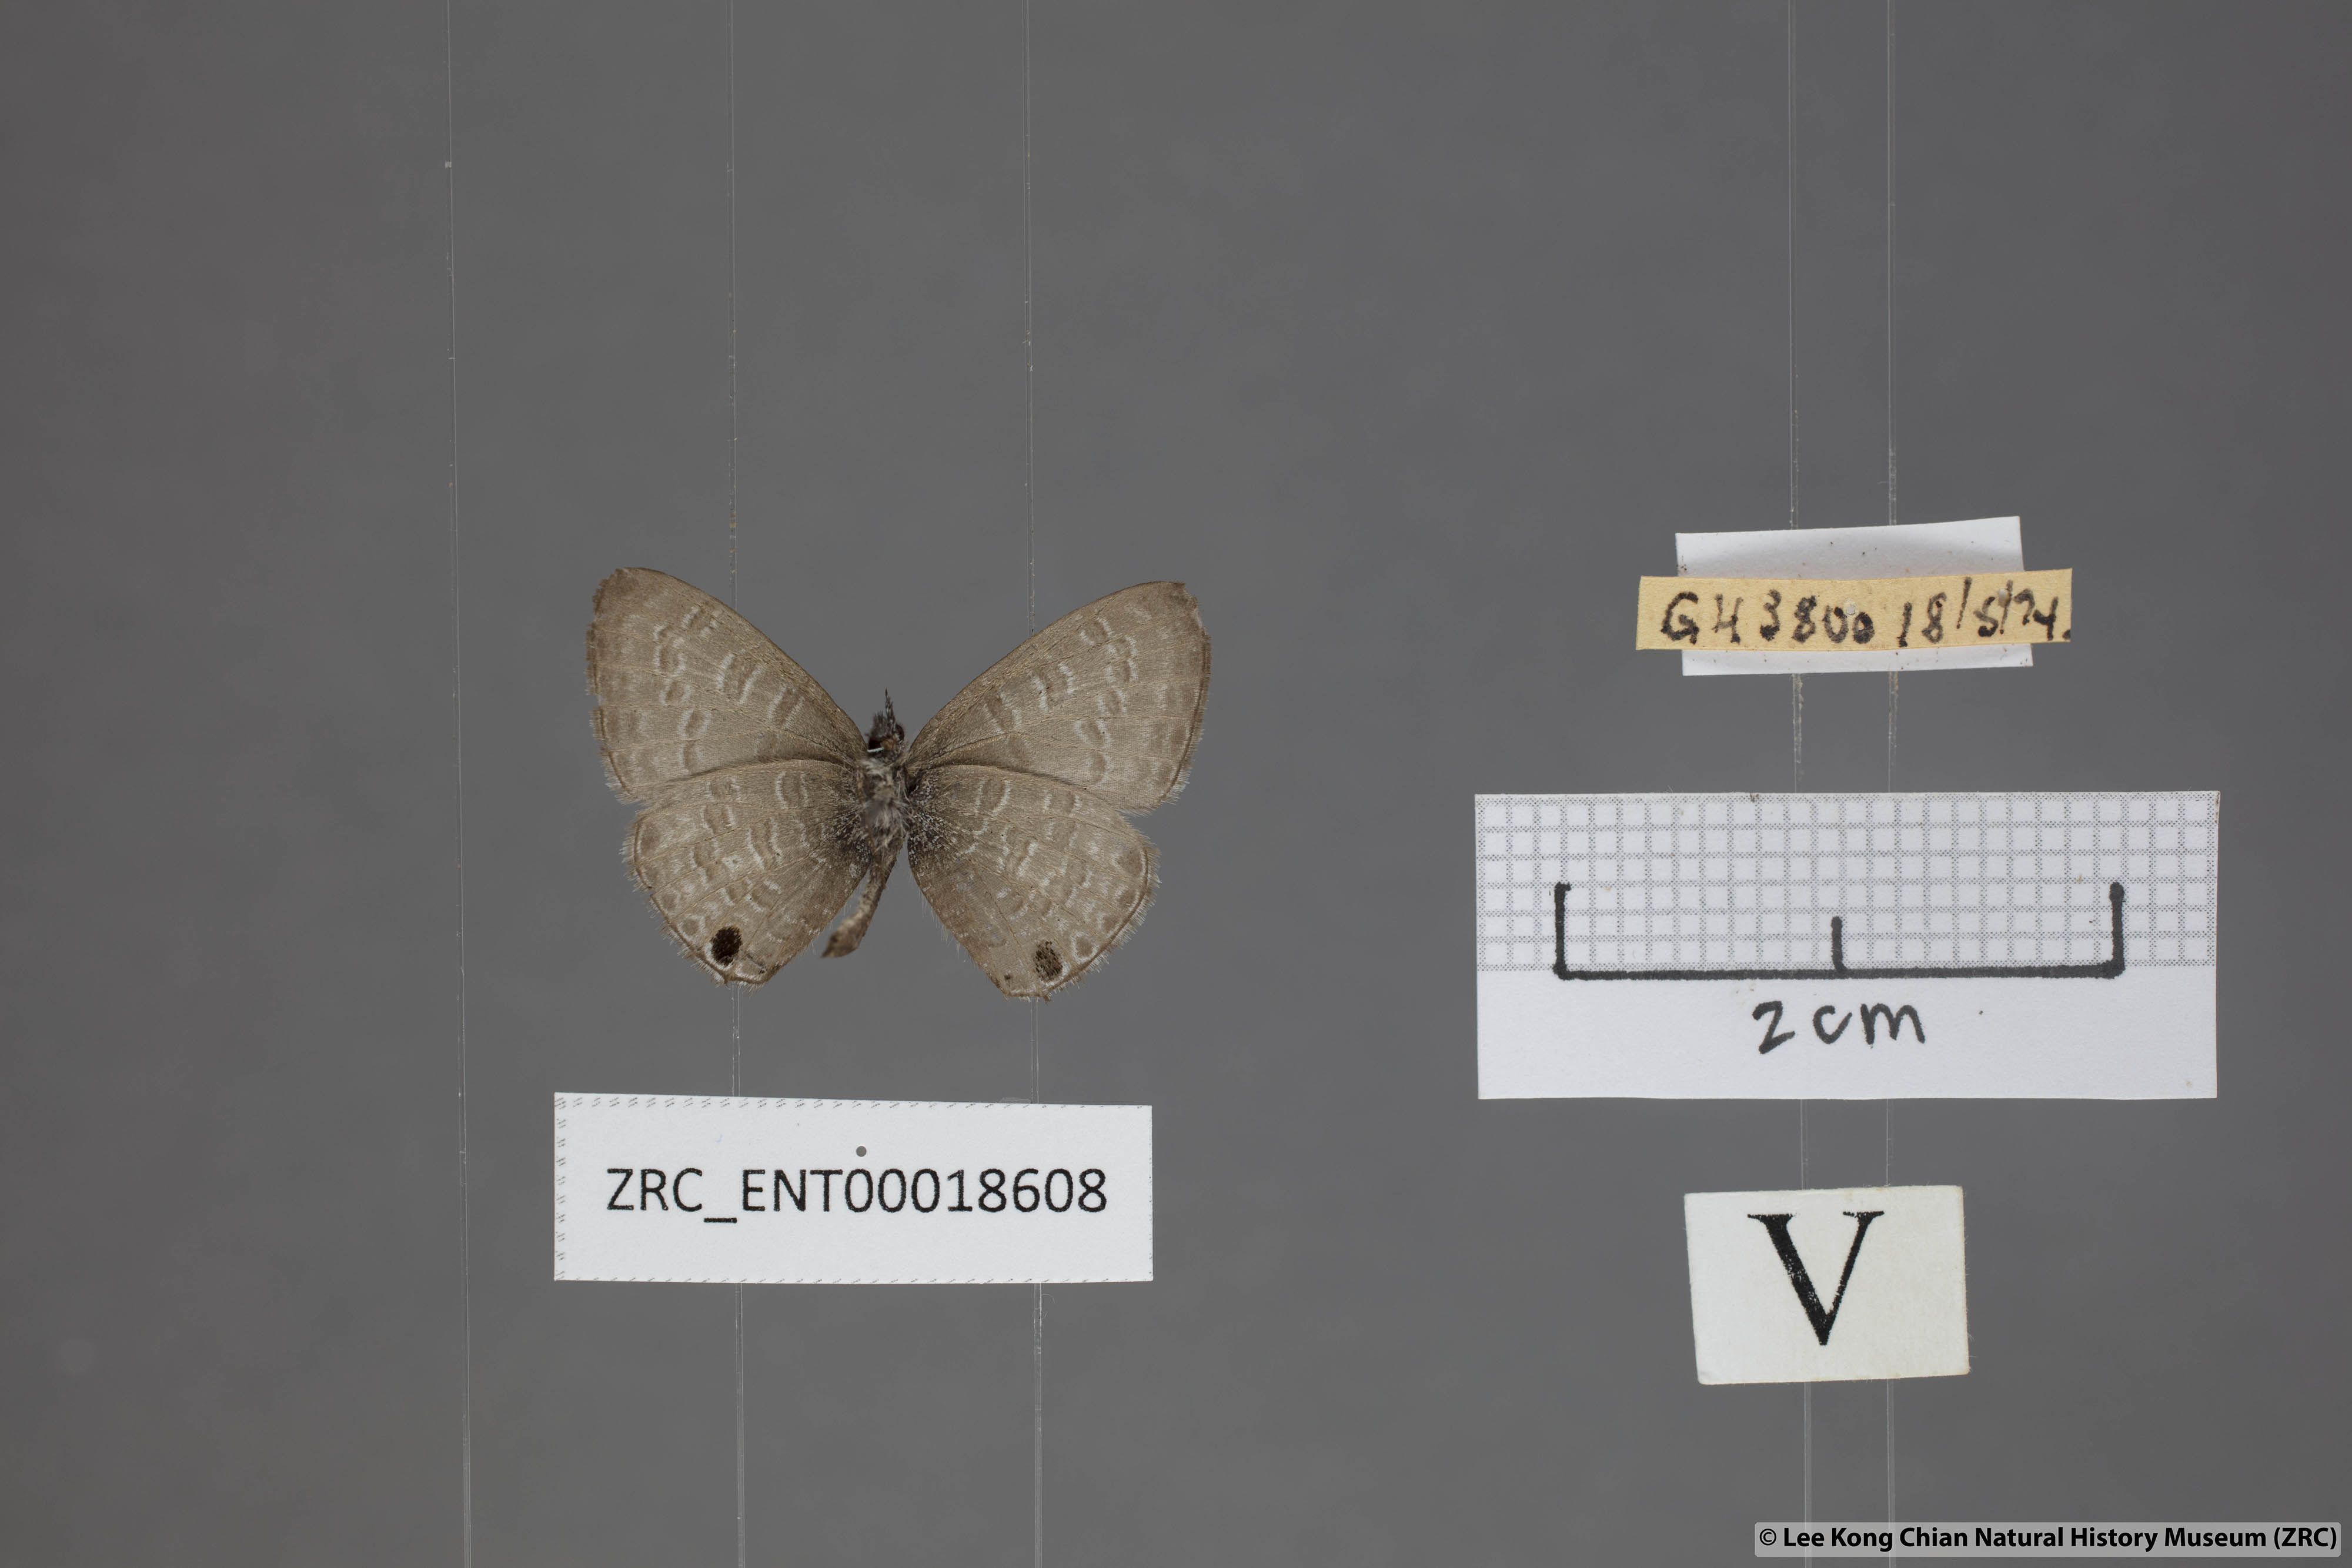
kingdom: Animalia
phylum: Arthropoda
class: Insecta
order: Lepidoptera
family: Lycaenidae
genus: Prosotas
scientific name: Prosotas nelides
